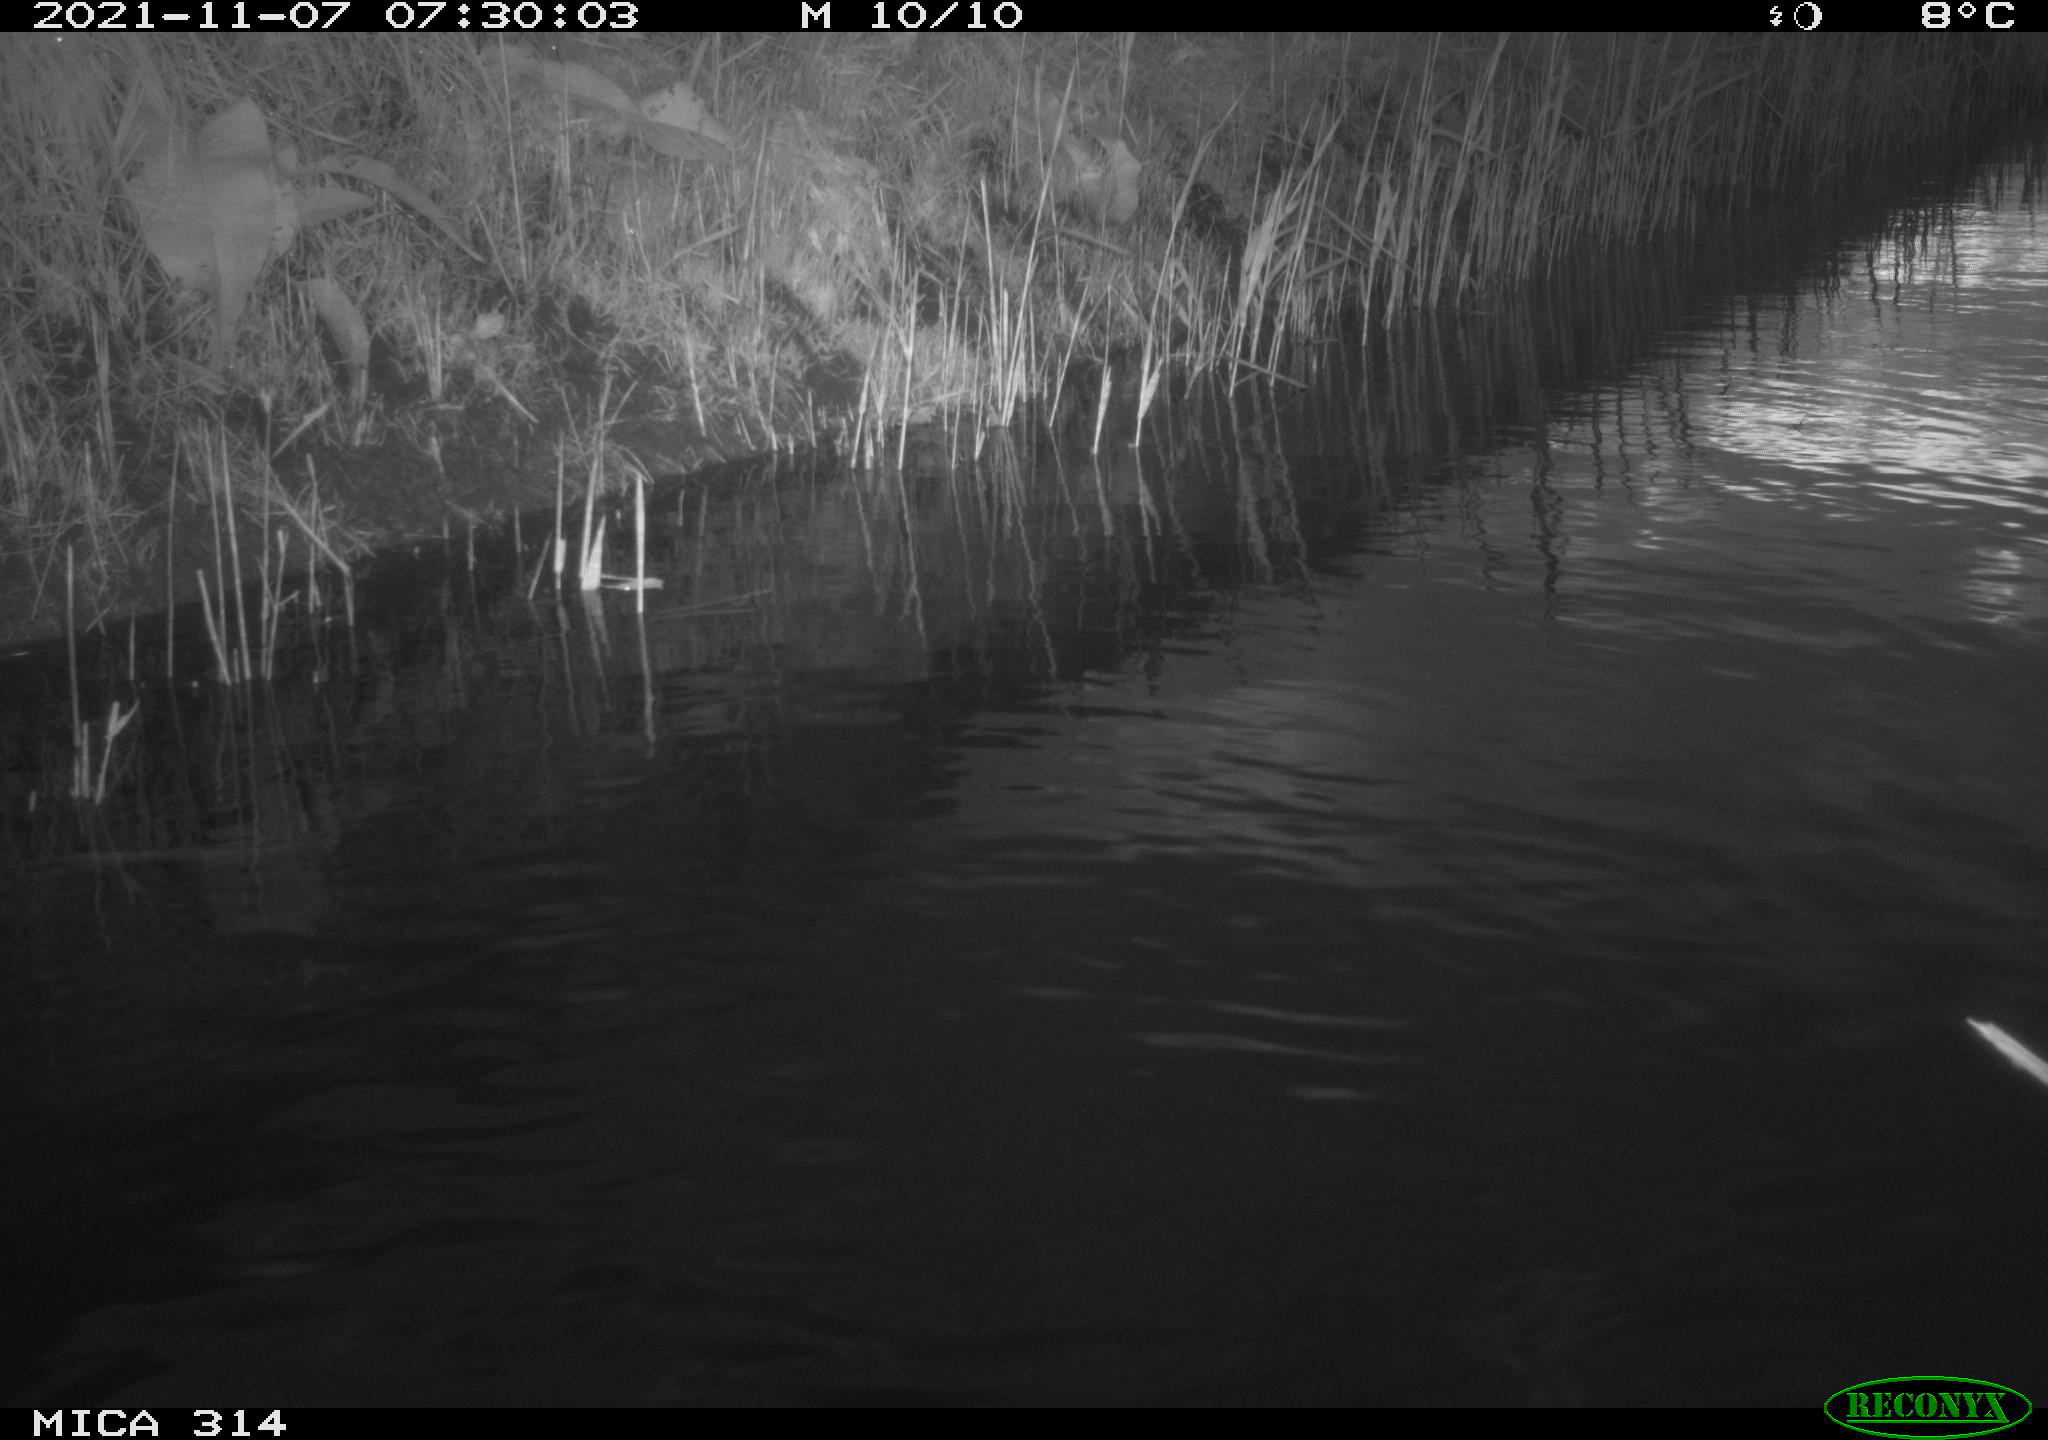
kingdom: Animalia
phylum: Chordata
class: Aves
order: Gruiformes
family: Rallidae
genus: Gallinula
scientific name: Gallinula chloropus
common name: Common moorhen
